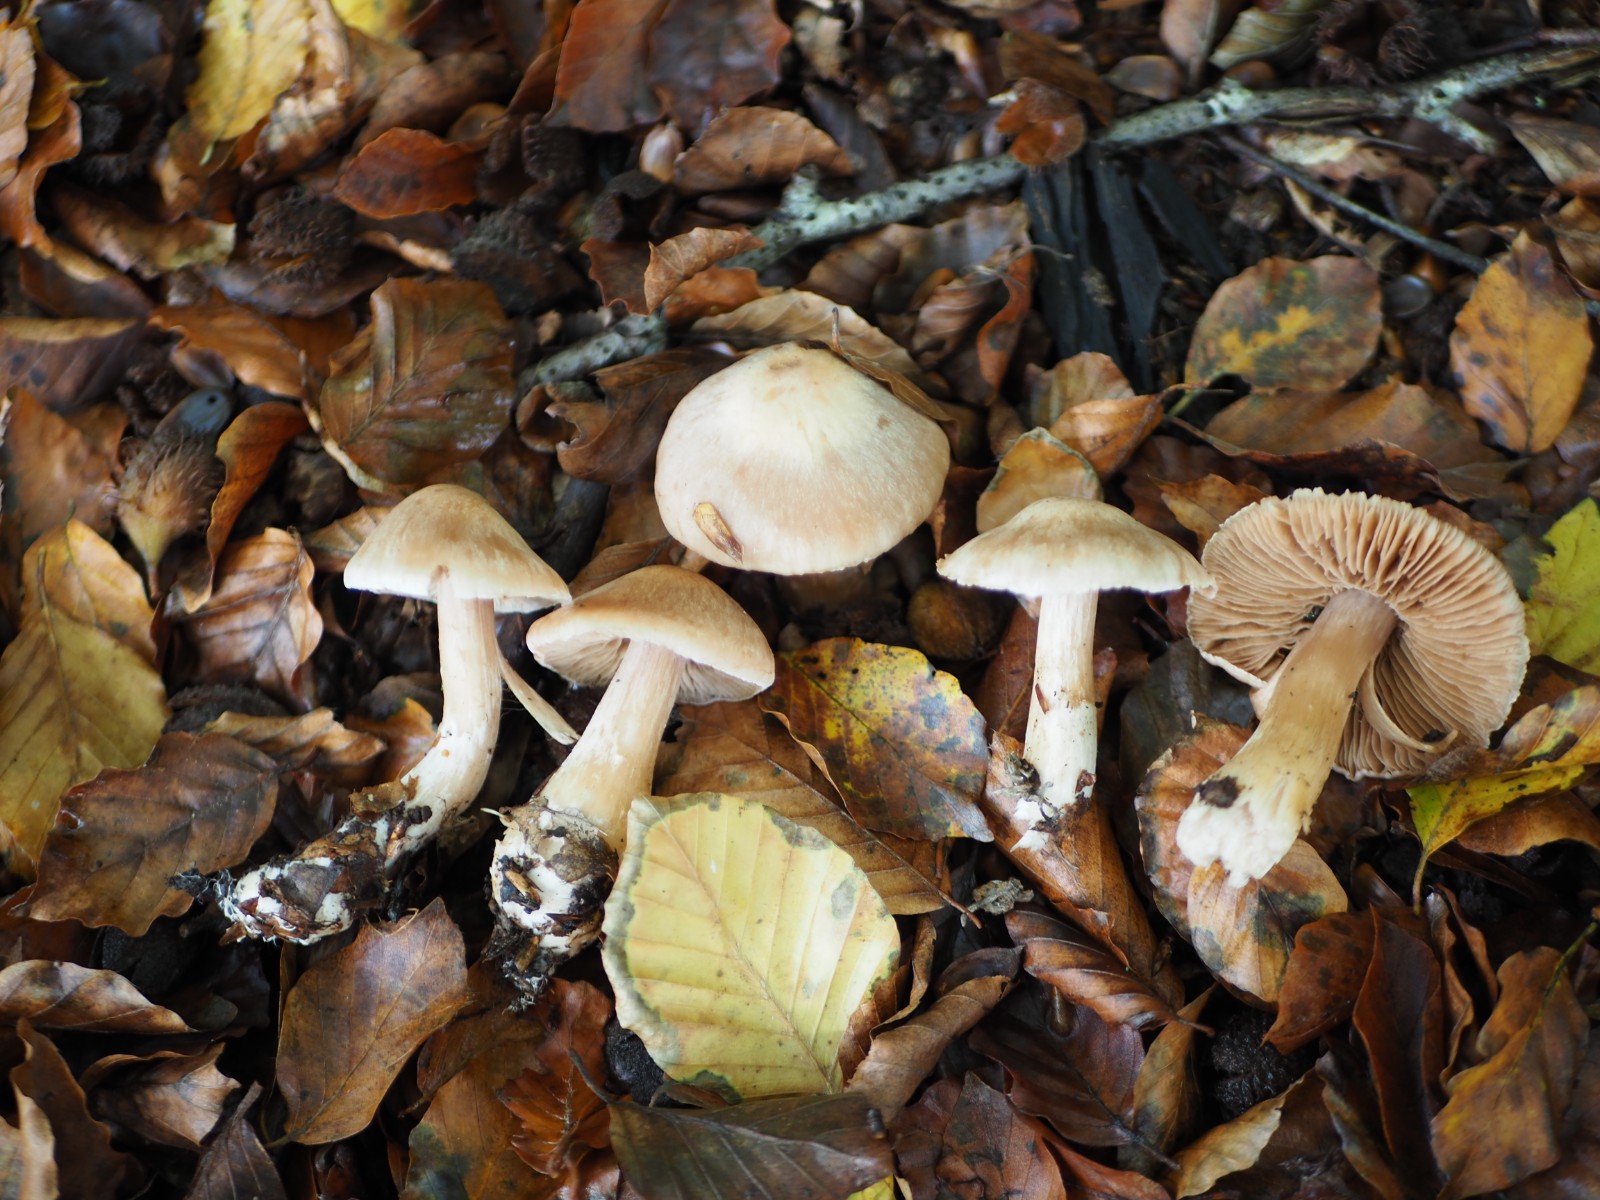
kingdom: Fungi
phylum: Basidiomycota
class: Agaricomycetes
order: Agaricales
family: Cortinariaceae
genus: Cortinarius
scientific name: Cortinarius turgidus
